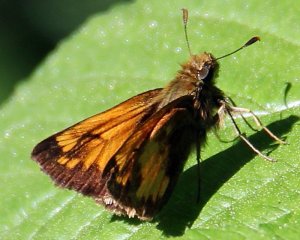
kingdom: Animalia
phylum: Arthropoda
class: Insecta
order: Lepidoptera
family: Hesperiidae
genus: Lon
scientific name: Lon hobomok
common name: Hobomok Skipper
